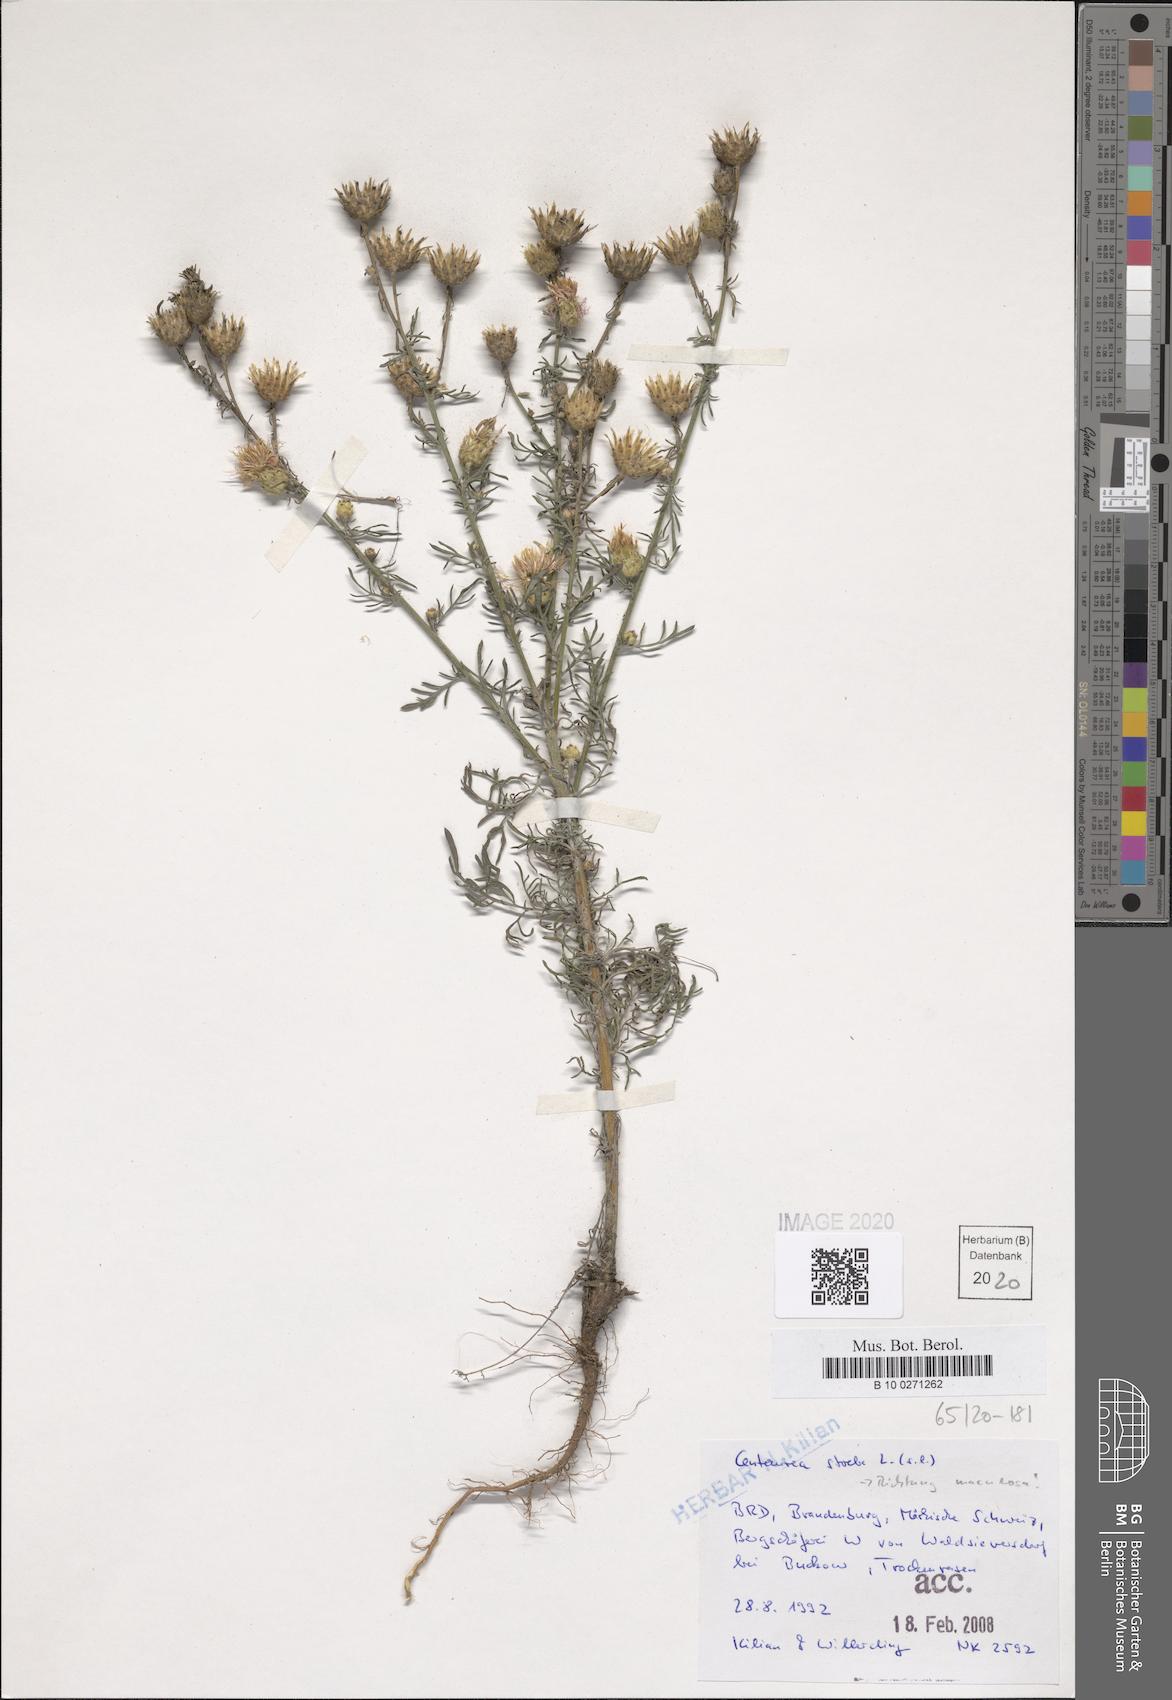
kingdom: Plantae
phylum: Tracheophyta
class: Magnoliopsida
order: Asterales
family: Asteraceae
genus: Centaurea
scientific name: Centaurea stoebe
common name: Spotted knapweed
